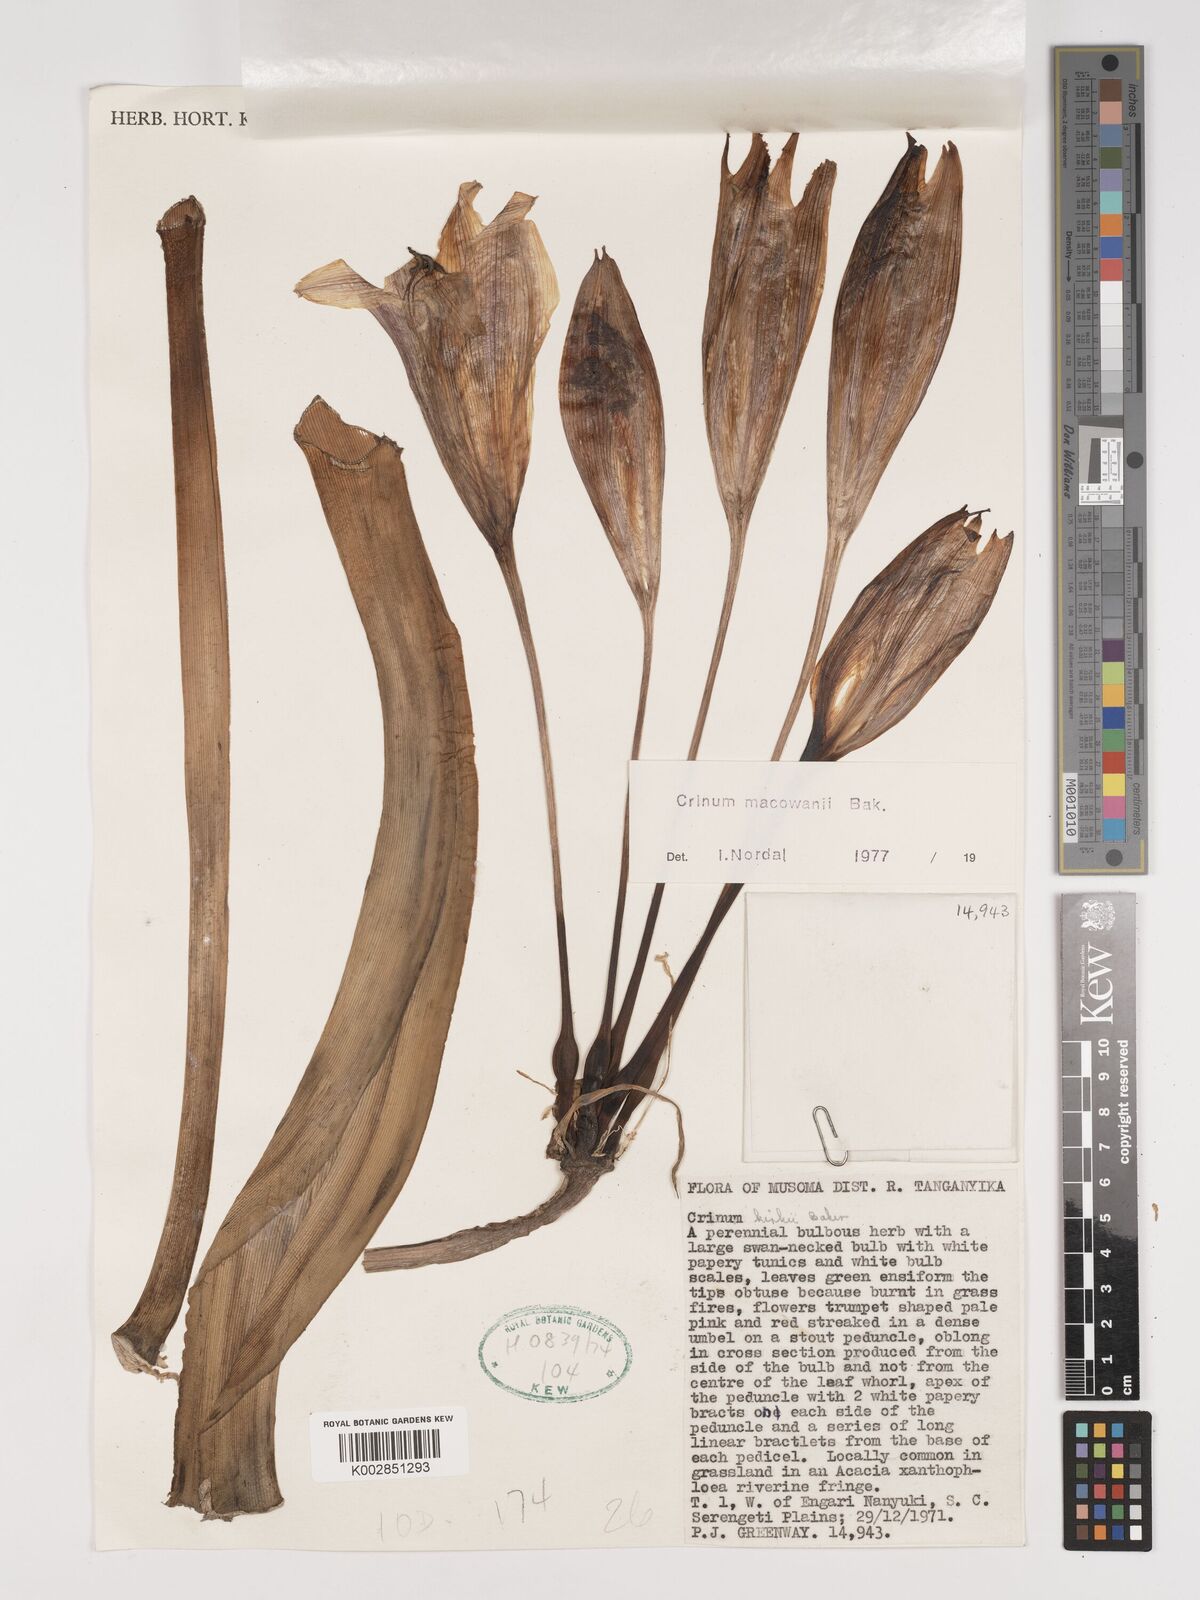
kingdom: Plantae
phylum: Tracheophyta
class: Liliopsida
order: Asparagales
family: Amaryllidaceae
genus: Crinum
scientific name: Crinum macowanii
